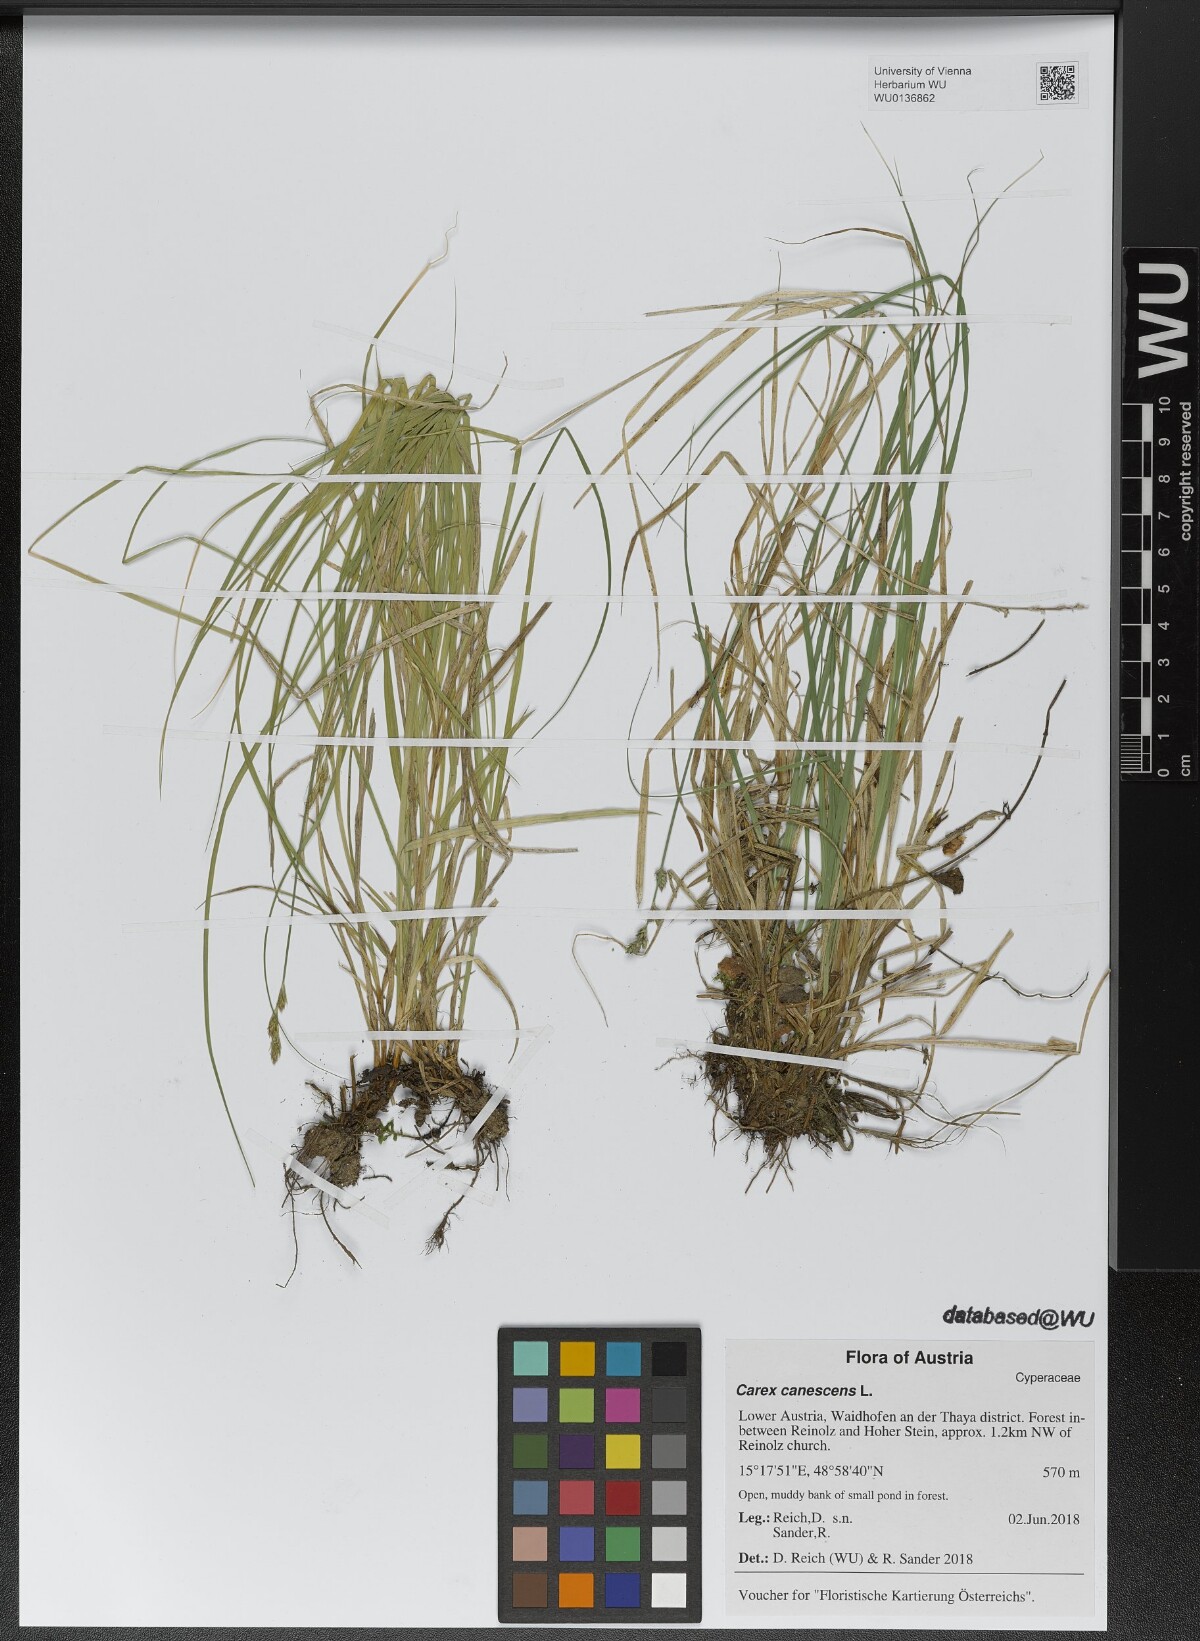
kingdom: Plantae
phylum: Tracheophyta
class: Liliopsida
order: Poales
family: Cyperaceae
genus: Carex
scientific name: Carex canescens
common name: White sedge
